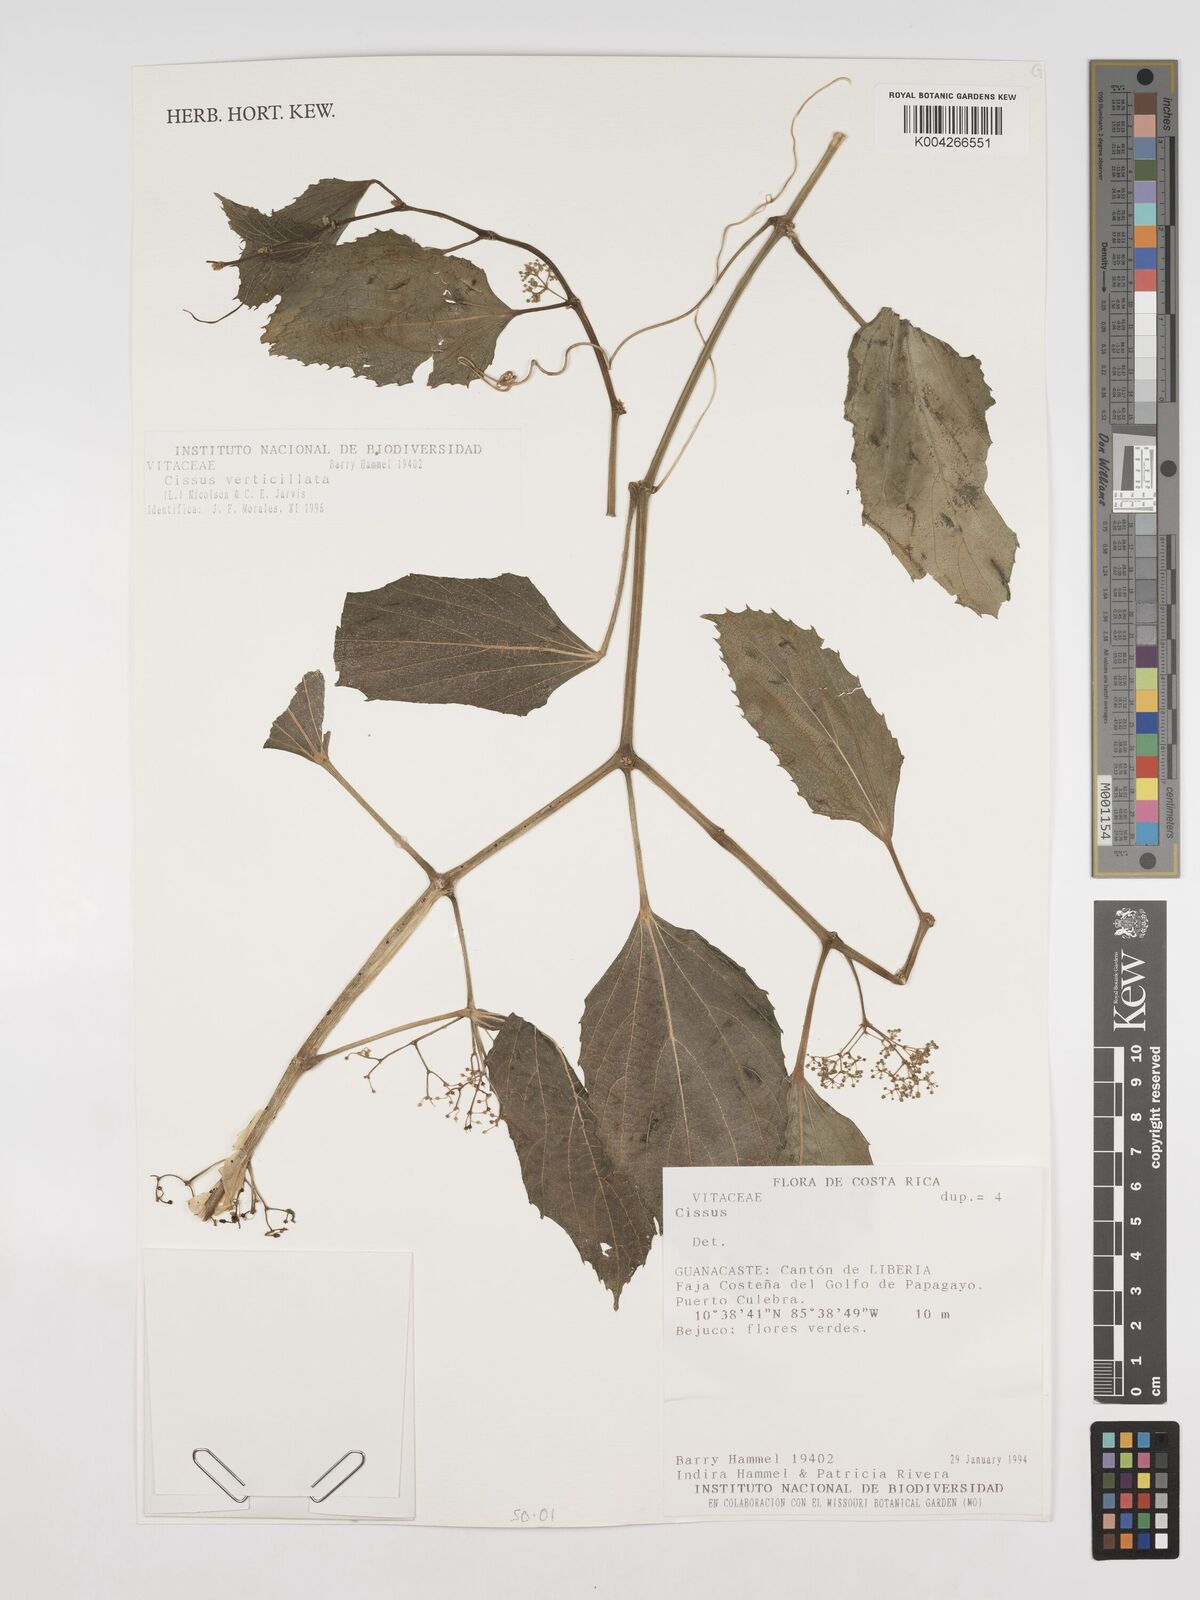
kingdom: Plantae
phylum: Tracheophyta
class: Magnoliopsida
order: Vitales
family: Vitaceae
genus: Cissus
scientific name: Cissus verticillata
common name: Princess vine
